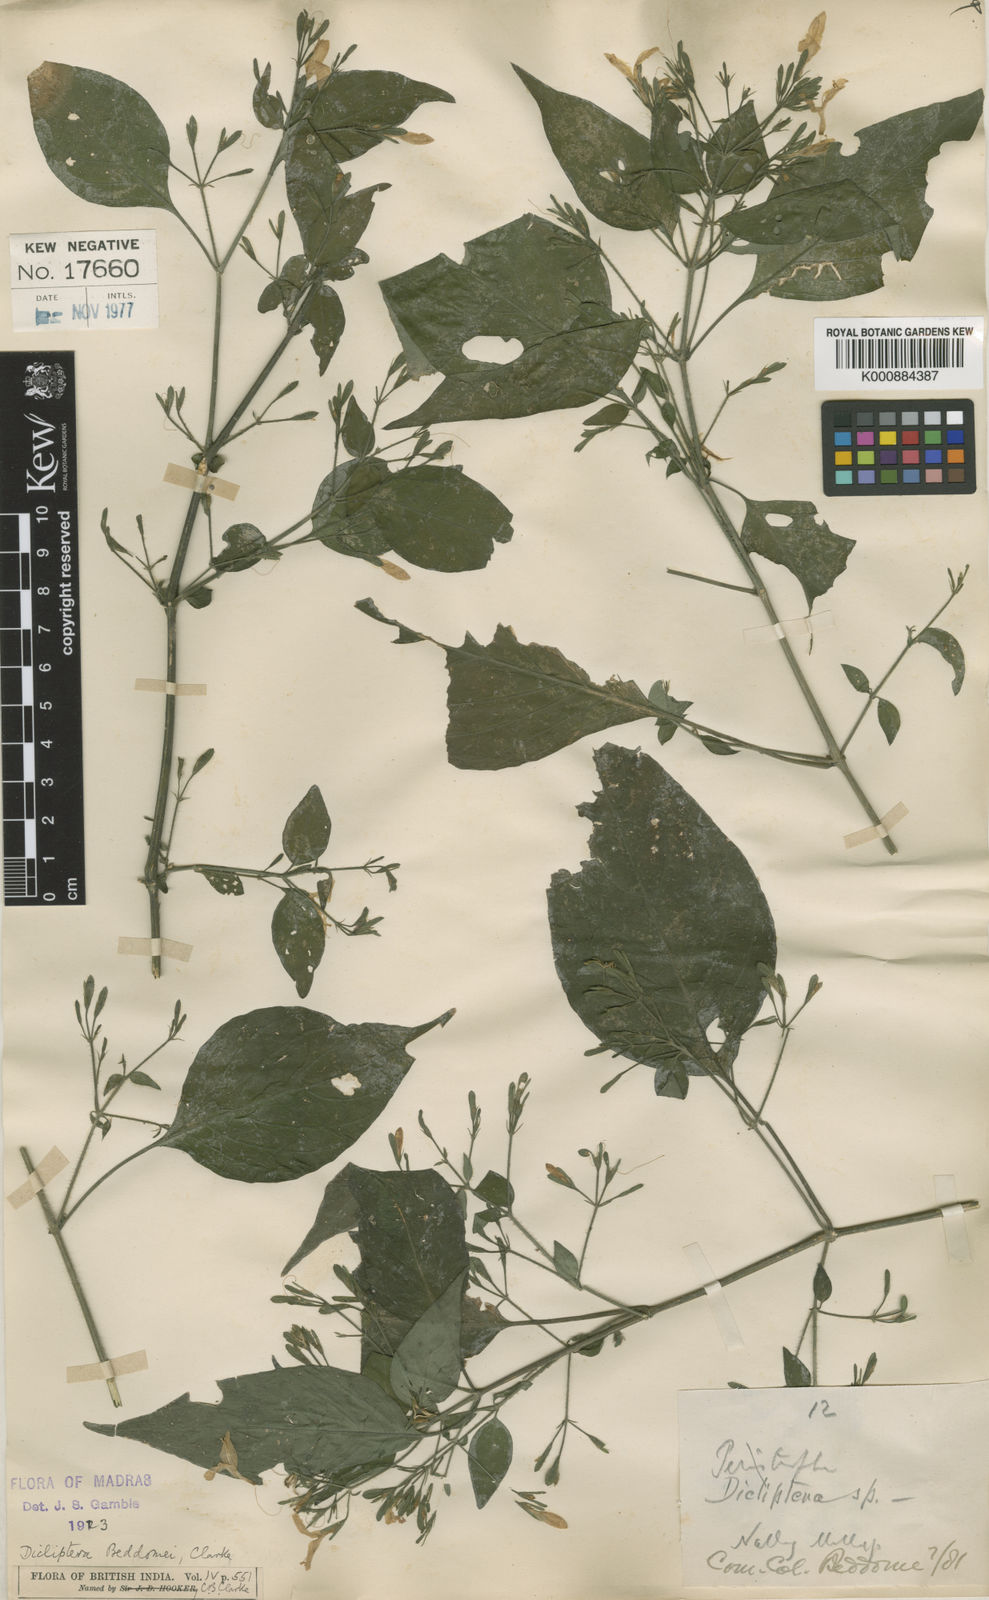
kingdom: Plantae
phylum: Tracheophyta
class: Magnoliopsida
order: Lamiales
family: Acanthaceae
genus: Dicliptera
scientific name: Dicliptera beddomei
